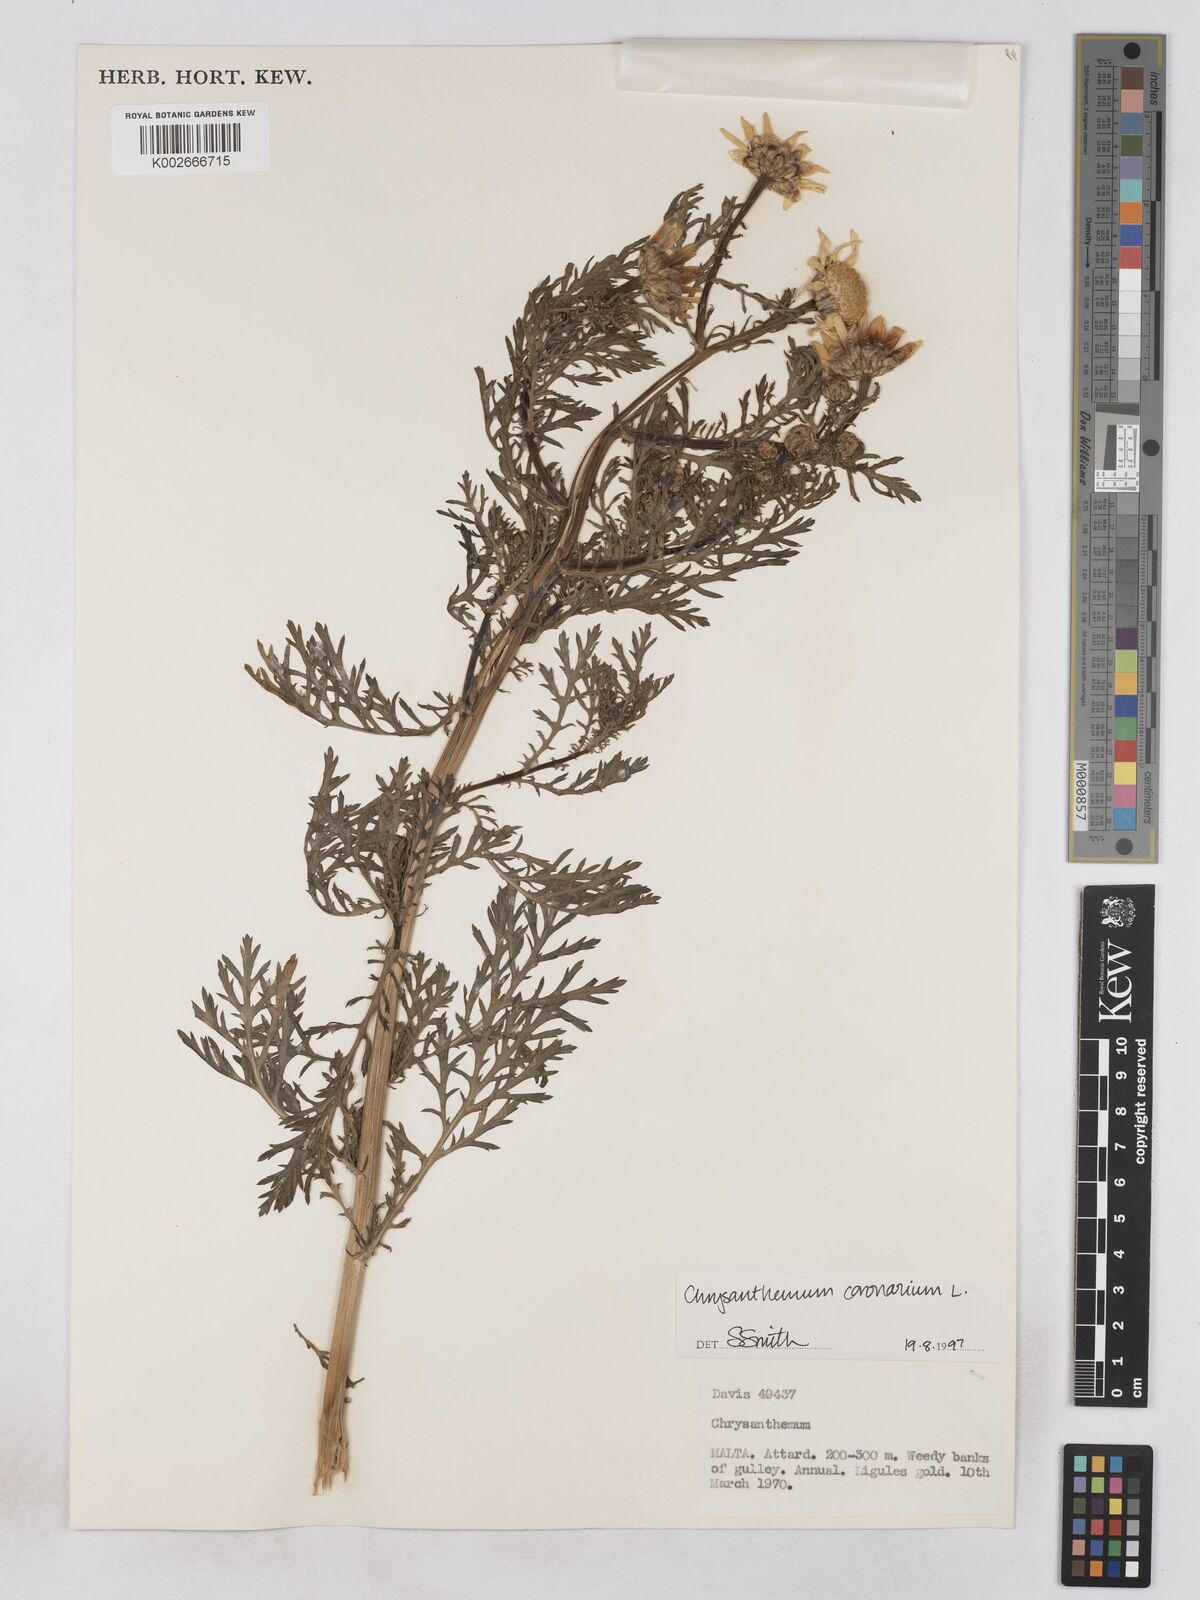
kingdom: Plantae
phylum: Tracheophyta
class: Magnoliopsida
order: Asterales
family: Asteraceae
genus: Glebionis
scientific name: Glebionis coronaria
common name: Crowndaisy
